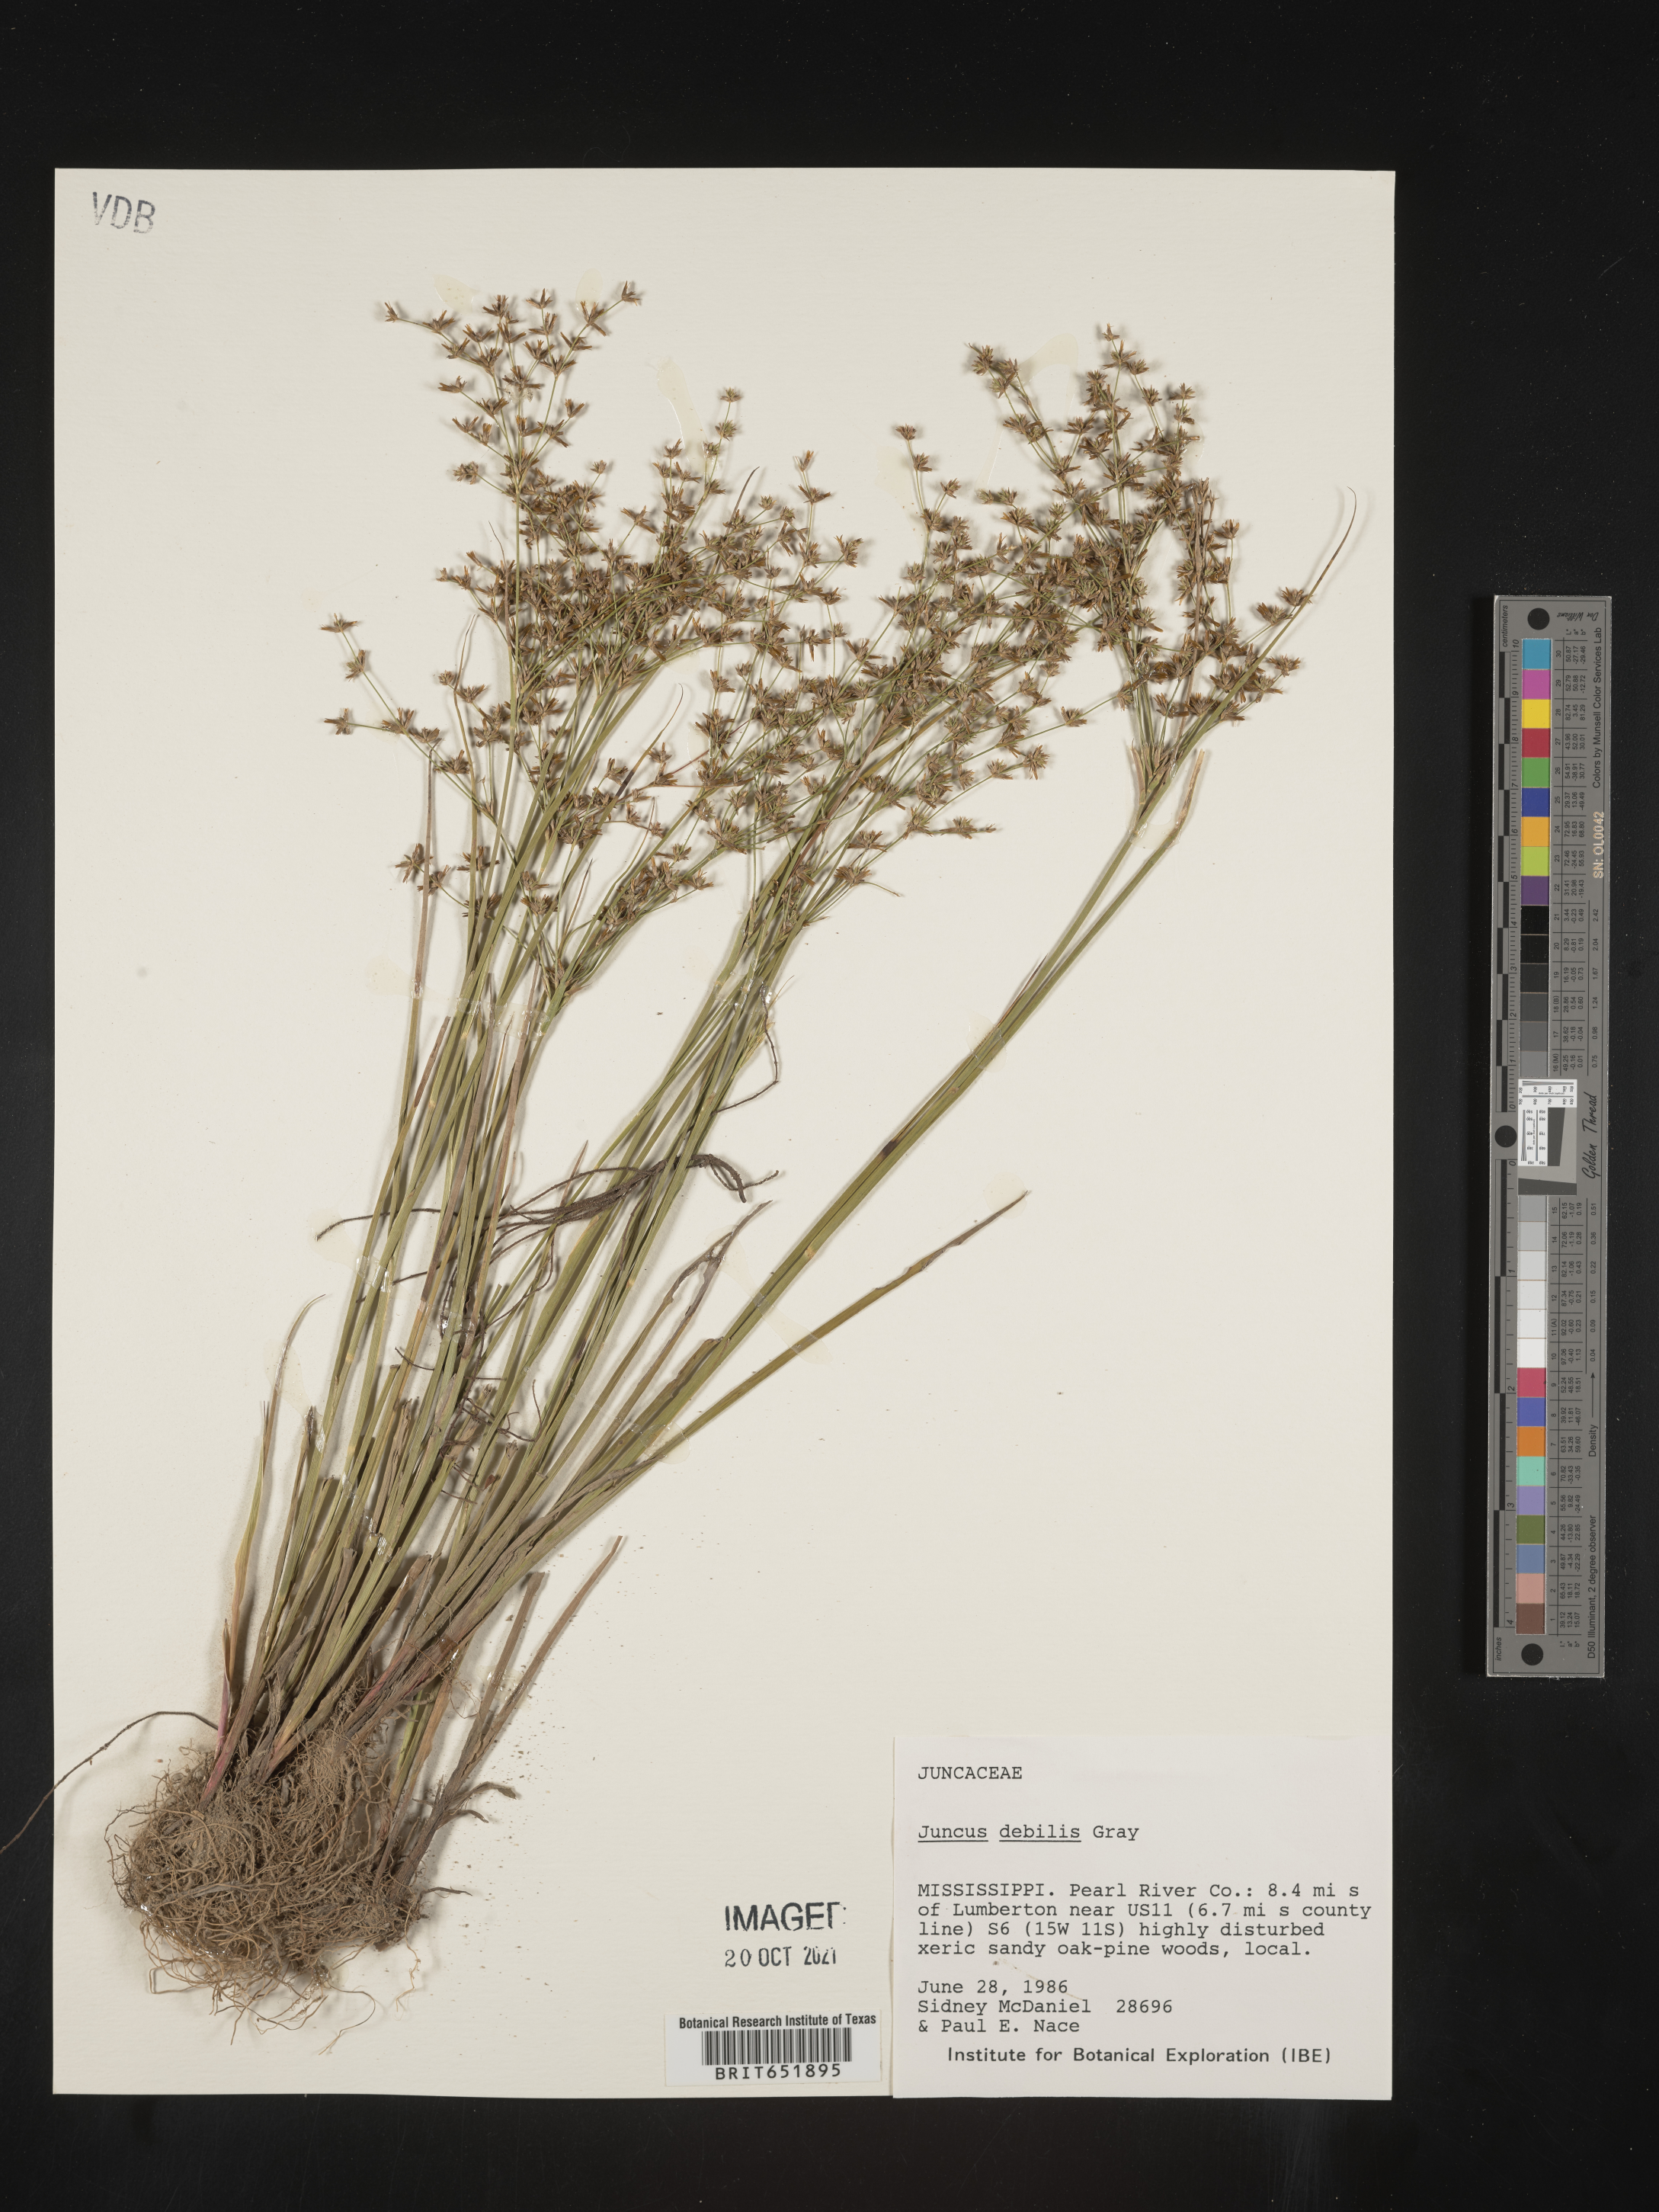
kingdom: Plantae
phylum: Tracheophyta
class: Liliopsida
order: Poales
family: Juncaceae
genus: Juncus
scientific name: Juncus debilis
